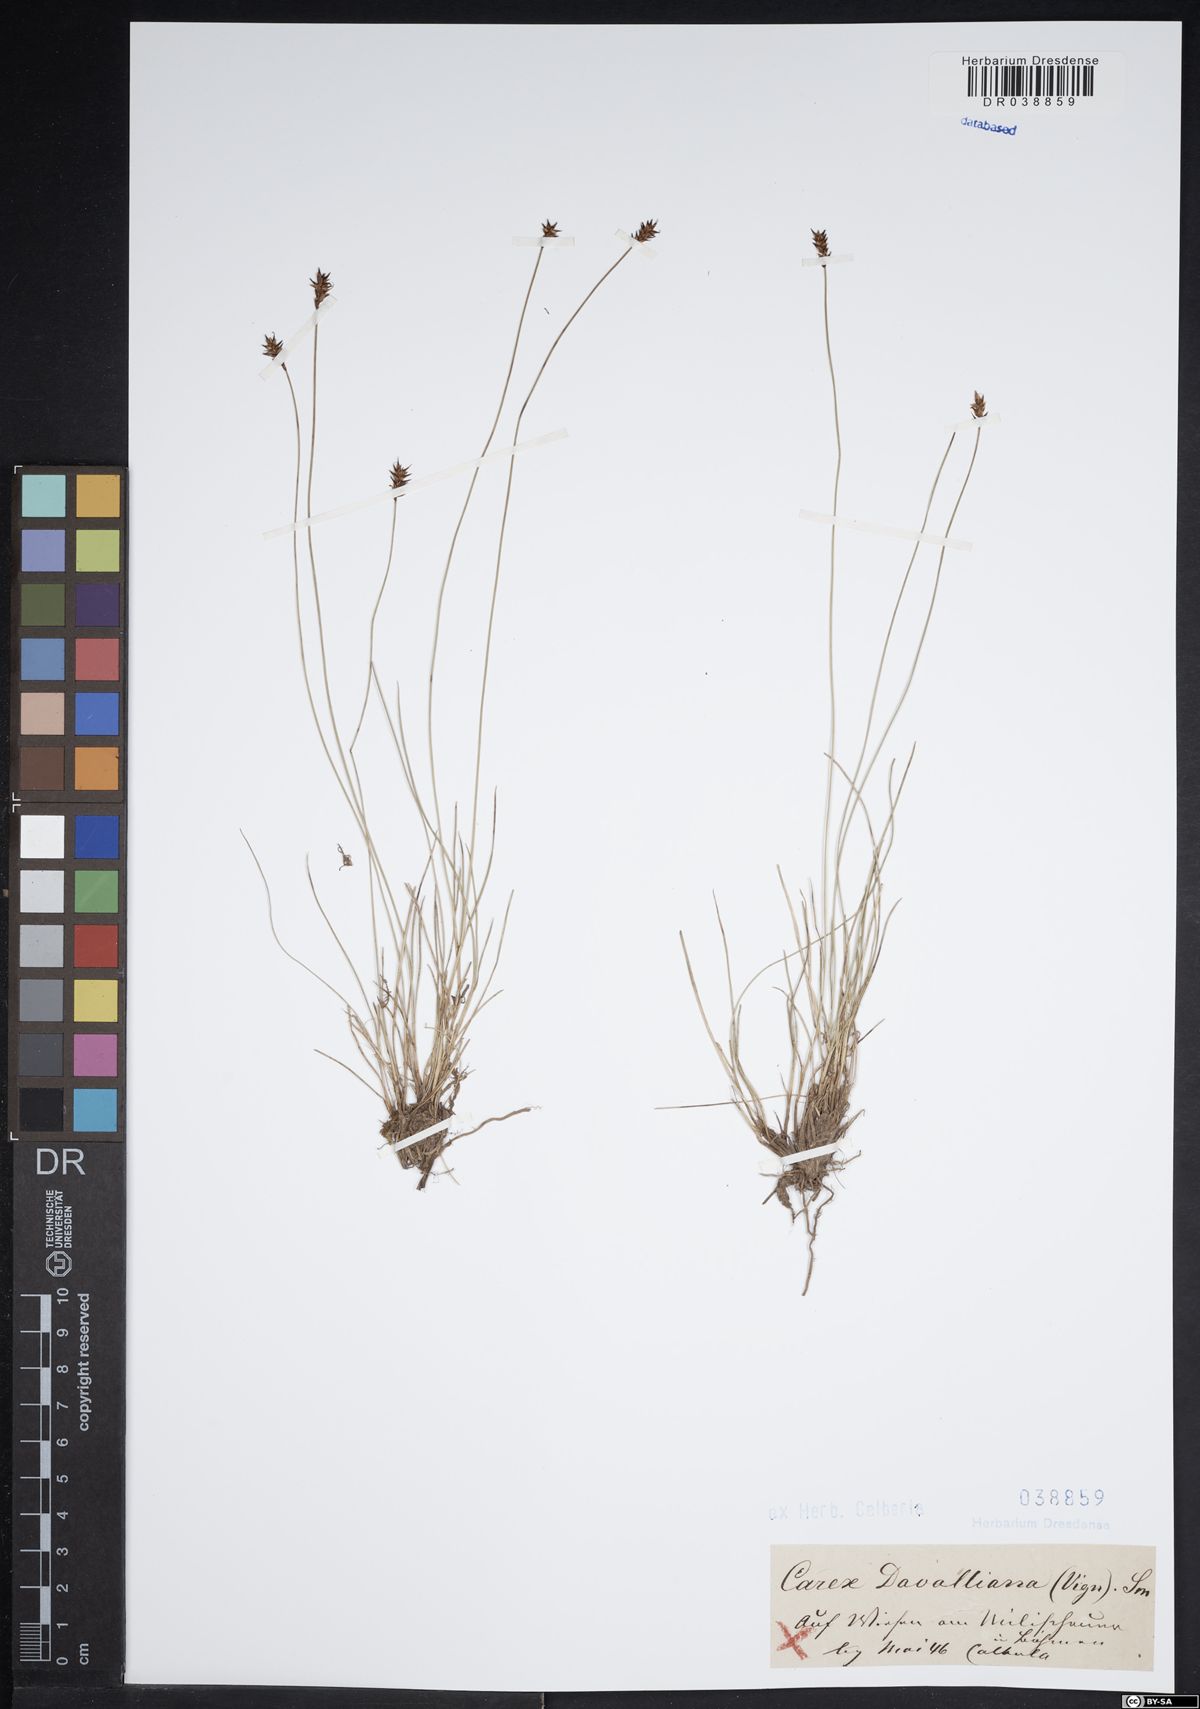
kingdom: Plantae
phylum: Tracheophyta
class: Liliopsida
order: Poales
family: Cyperaceae
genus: Carex
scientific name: Carex davalliana
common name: Davall's sedge
